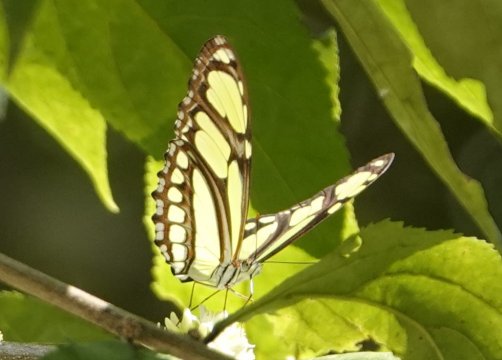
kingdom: Animalia
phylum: Arthropoda
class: Insecta
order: Lepidoptera
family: Nymphalidae
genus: Philaethria
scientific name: Philaethria dido
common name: Northern Green Longwing
